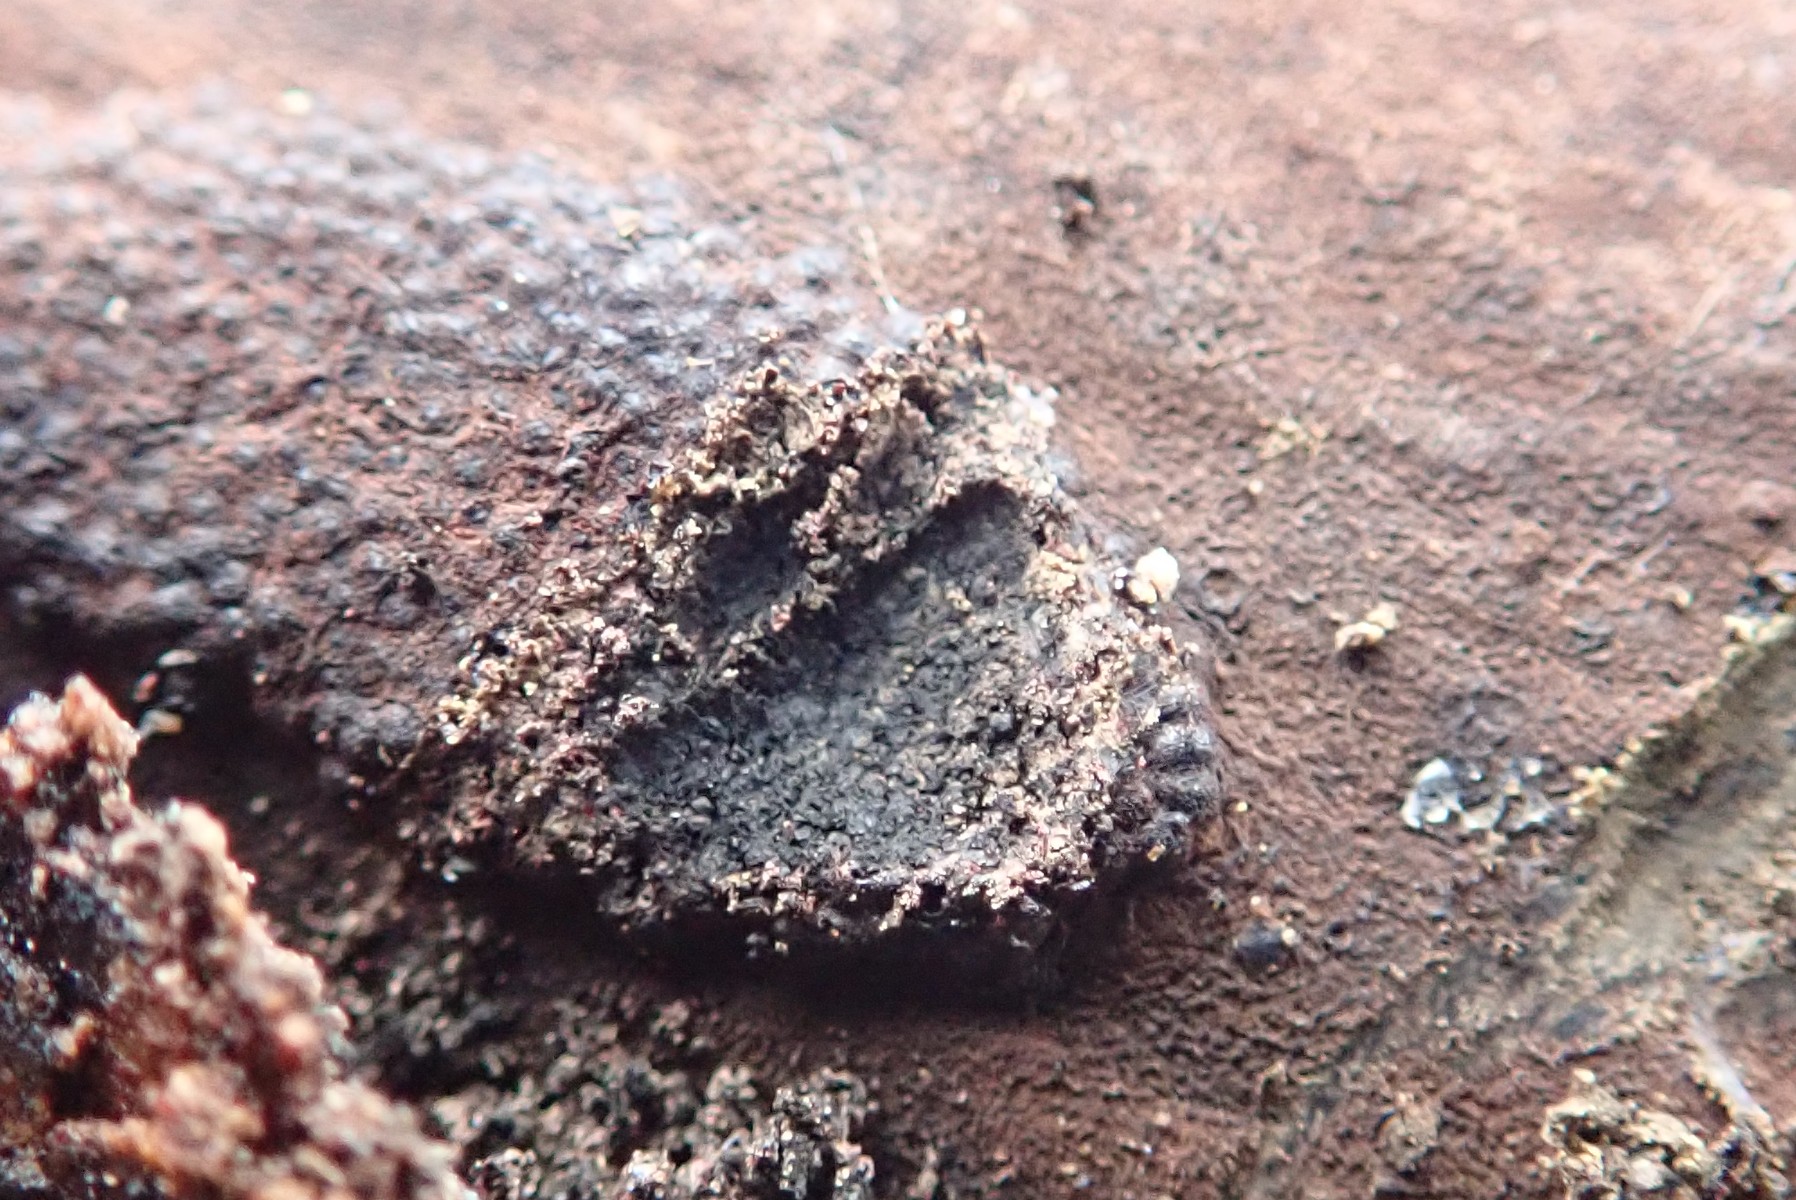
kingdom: Fungi
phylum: Ascomycota
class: Sordariomycetes
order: Xylariales
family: Hypoxylaceae
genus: Hypoxylon
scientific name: Hypoxylon
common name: kulbær
